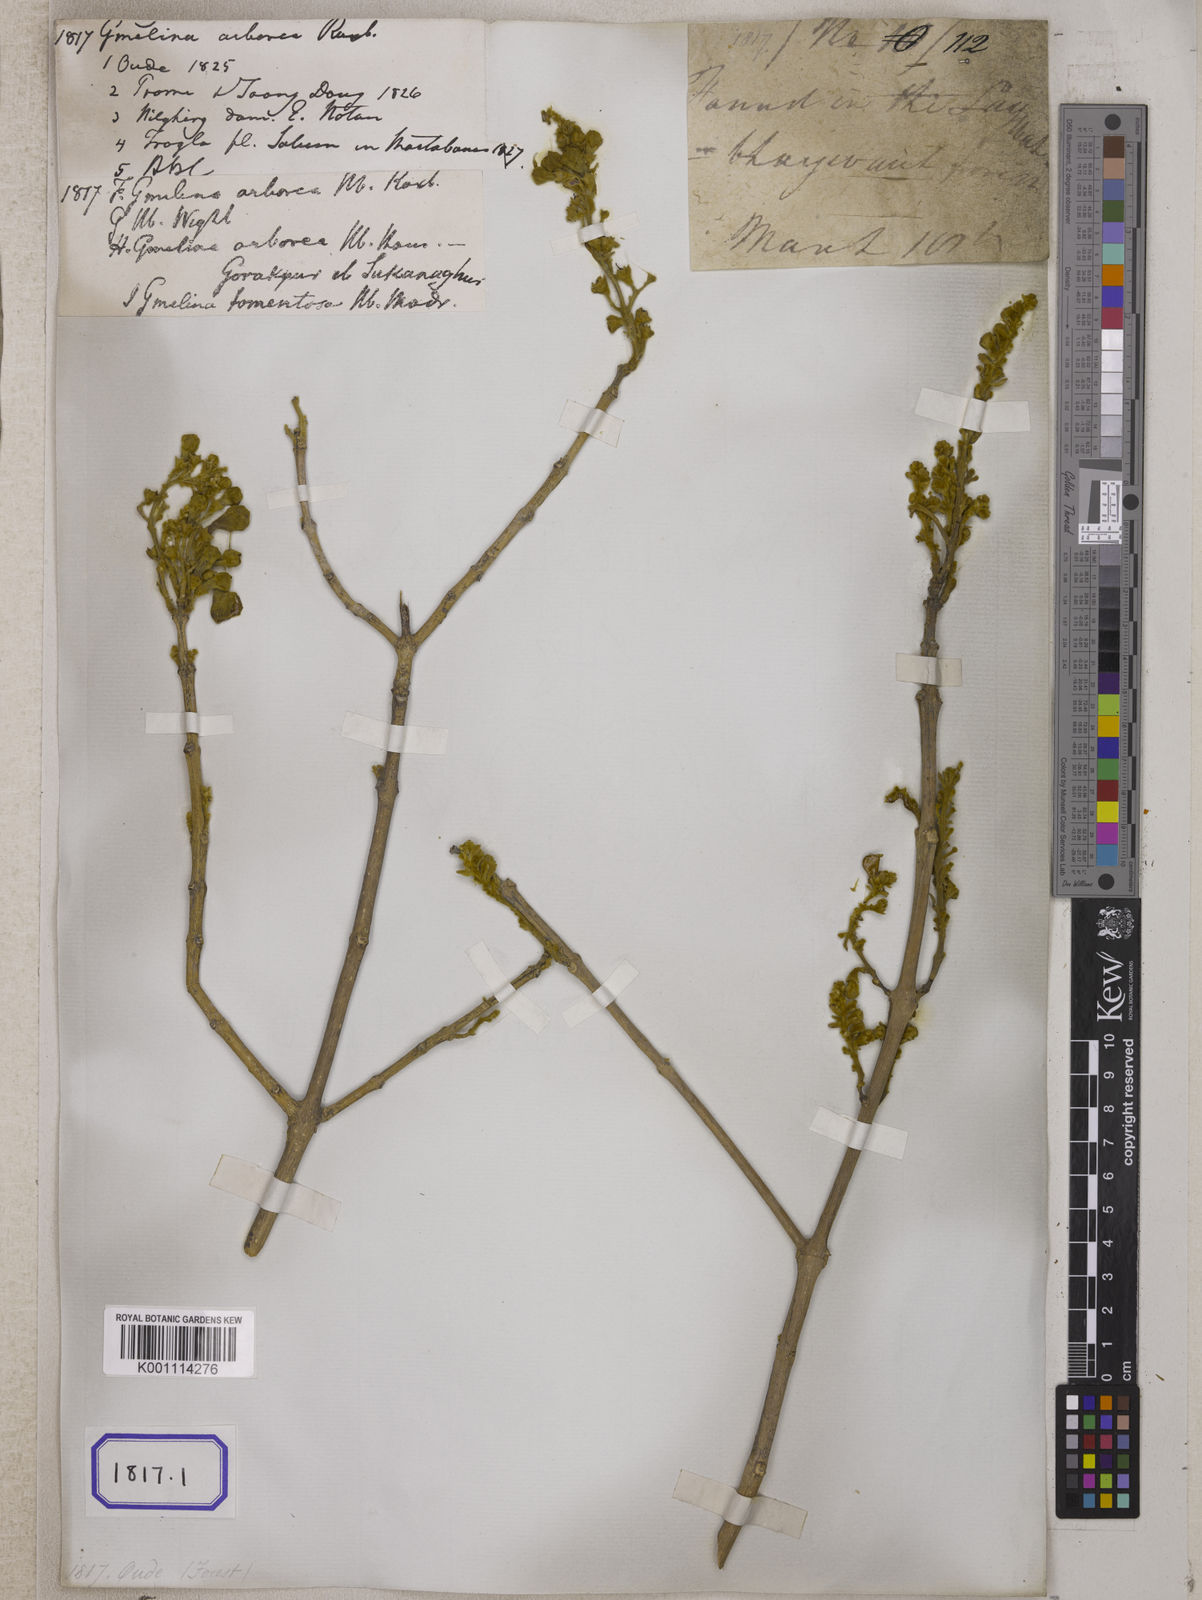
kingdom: Plantae
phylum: Tracheophyta
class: Magnoliopsida
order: Lamiales
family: Lamiaceae
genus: Gmelina
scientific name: Gmelina
